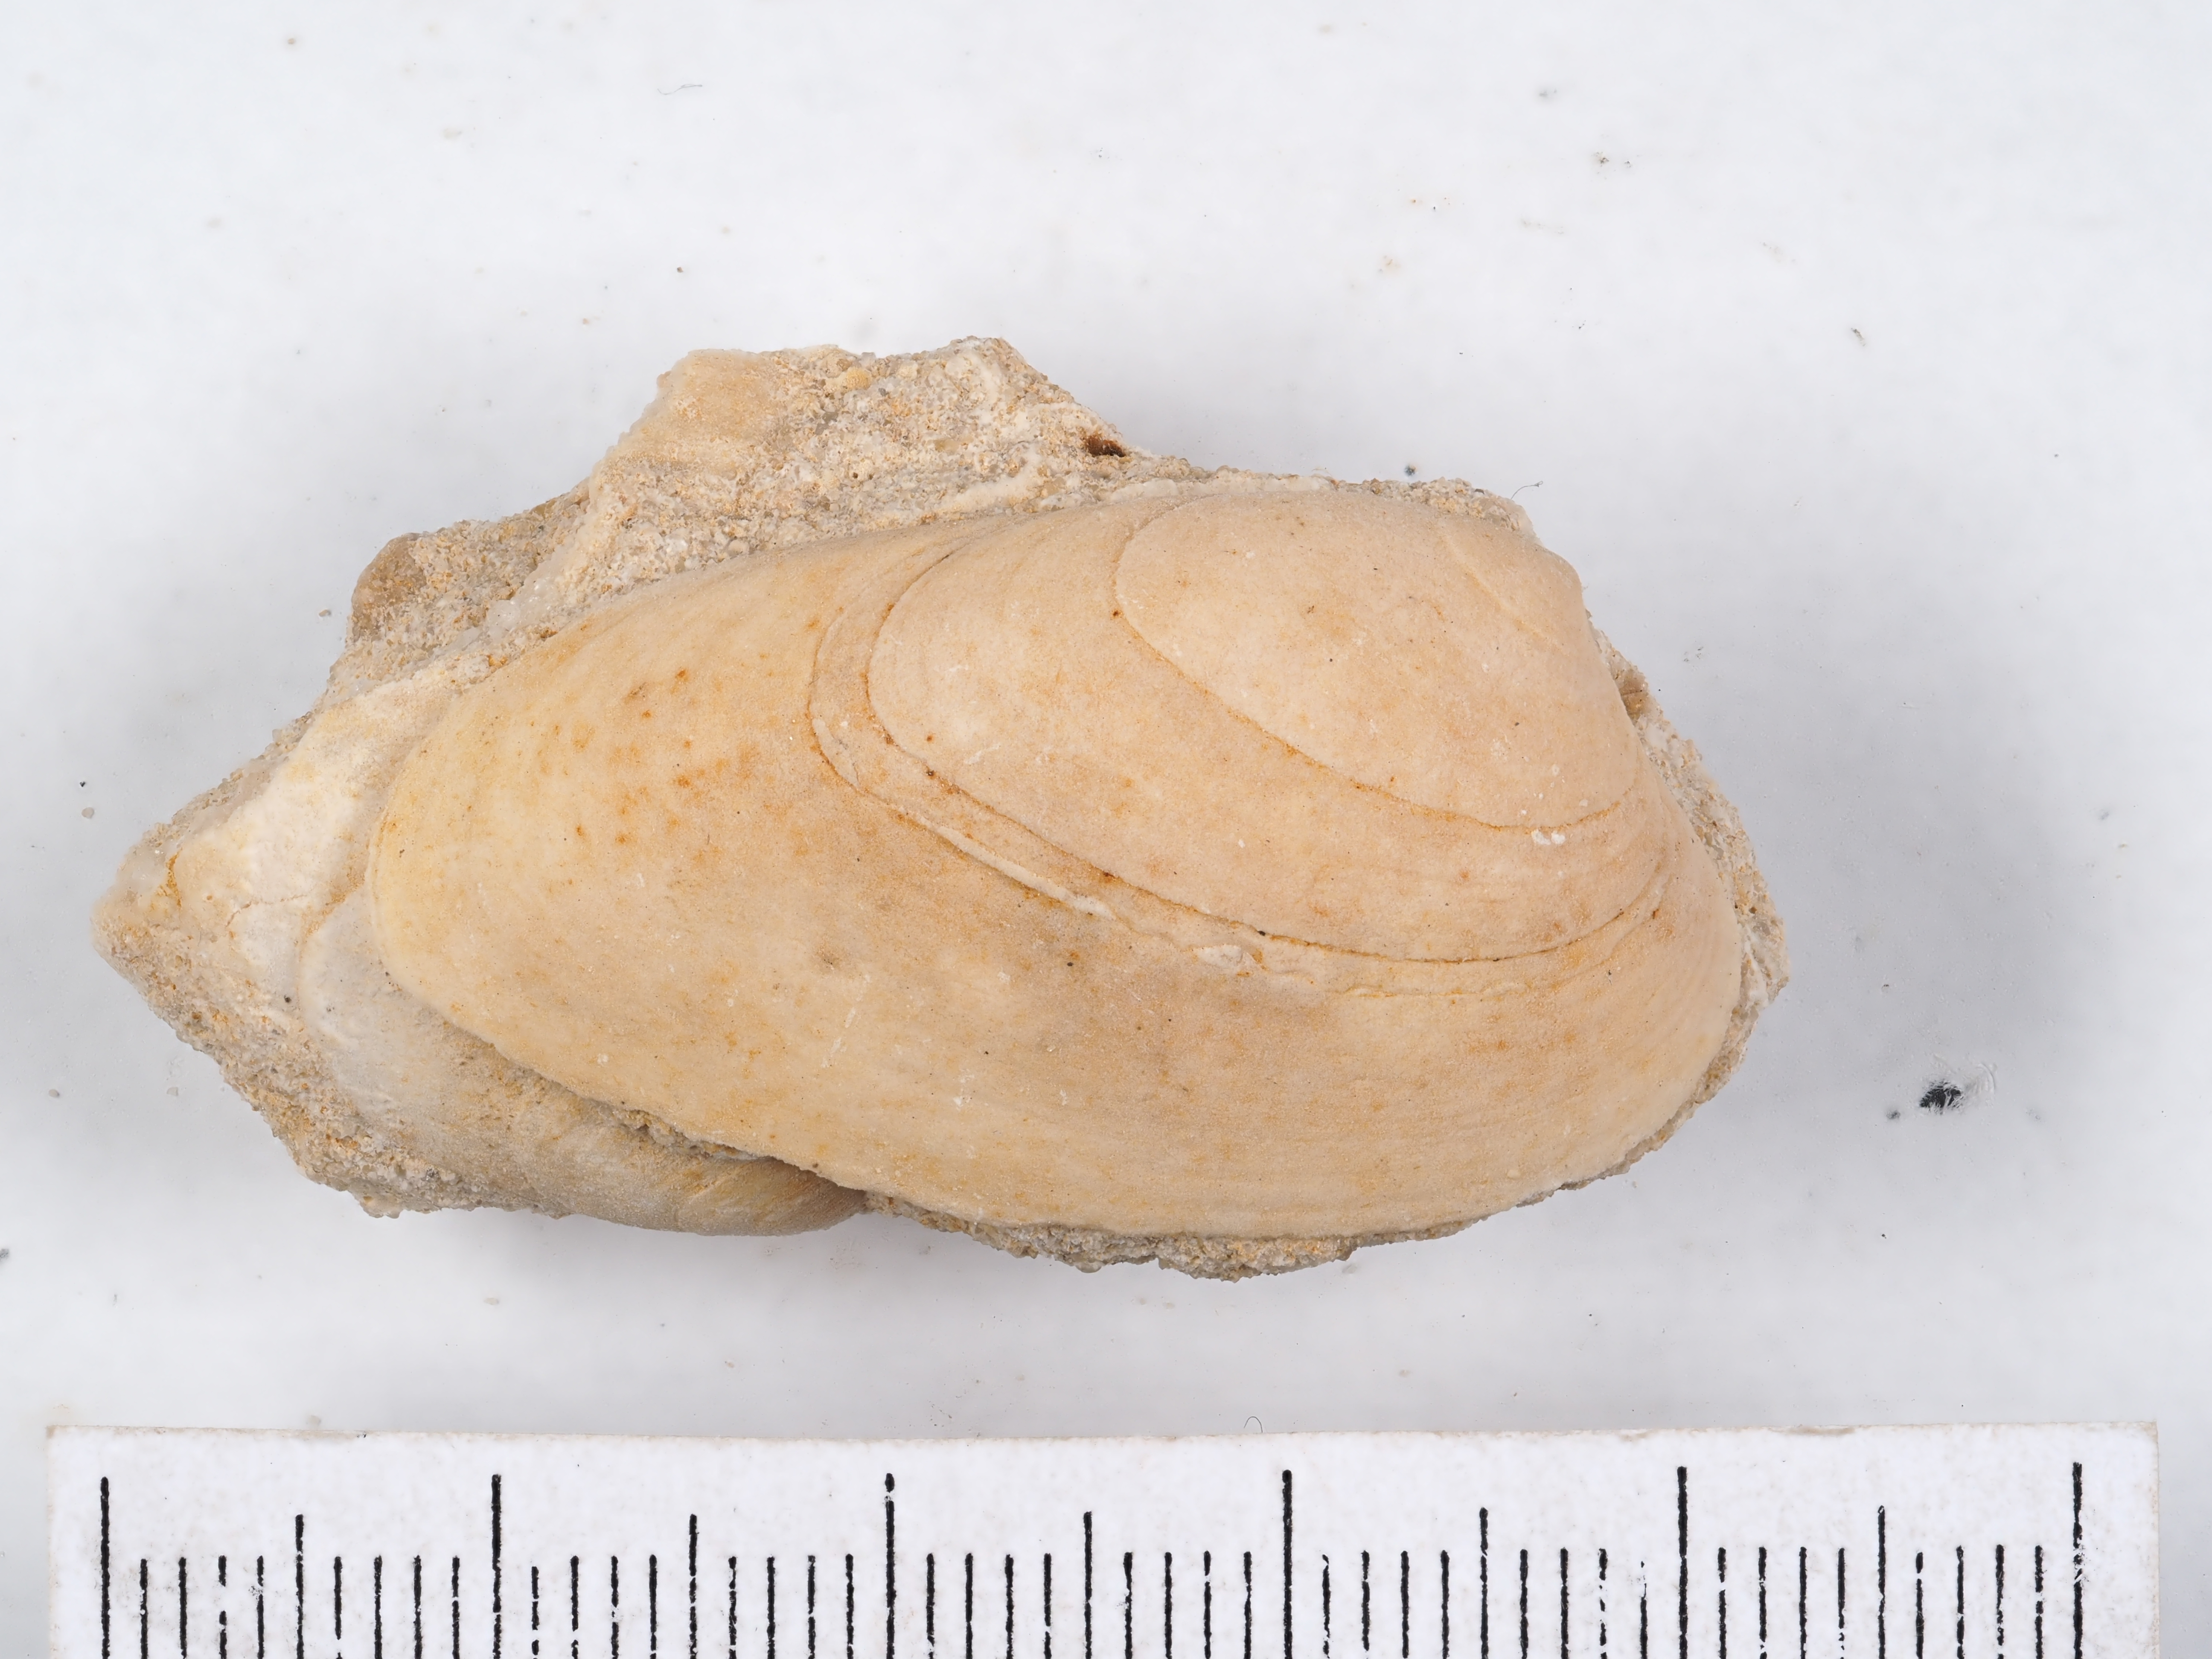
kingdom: Animalia
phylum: Mollusca
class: Bivalvia
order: Carditida
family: Cardiniidae
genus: Cardinia
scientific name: Cardinia
